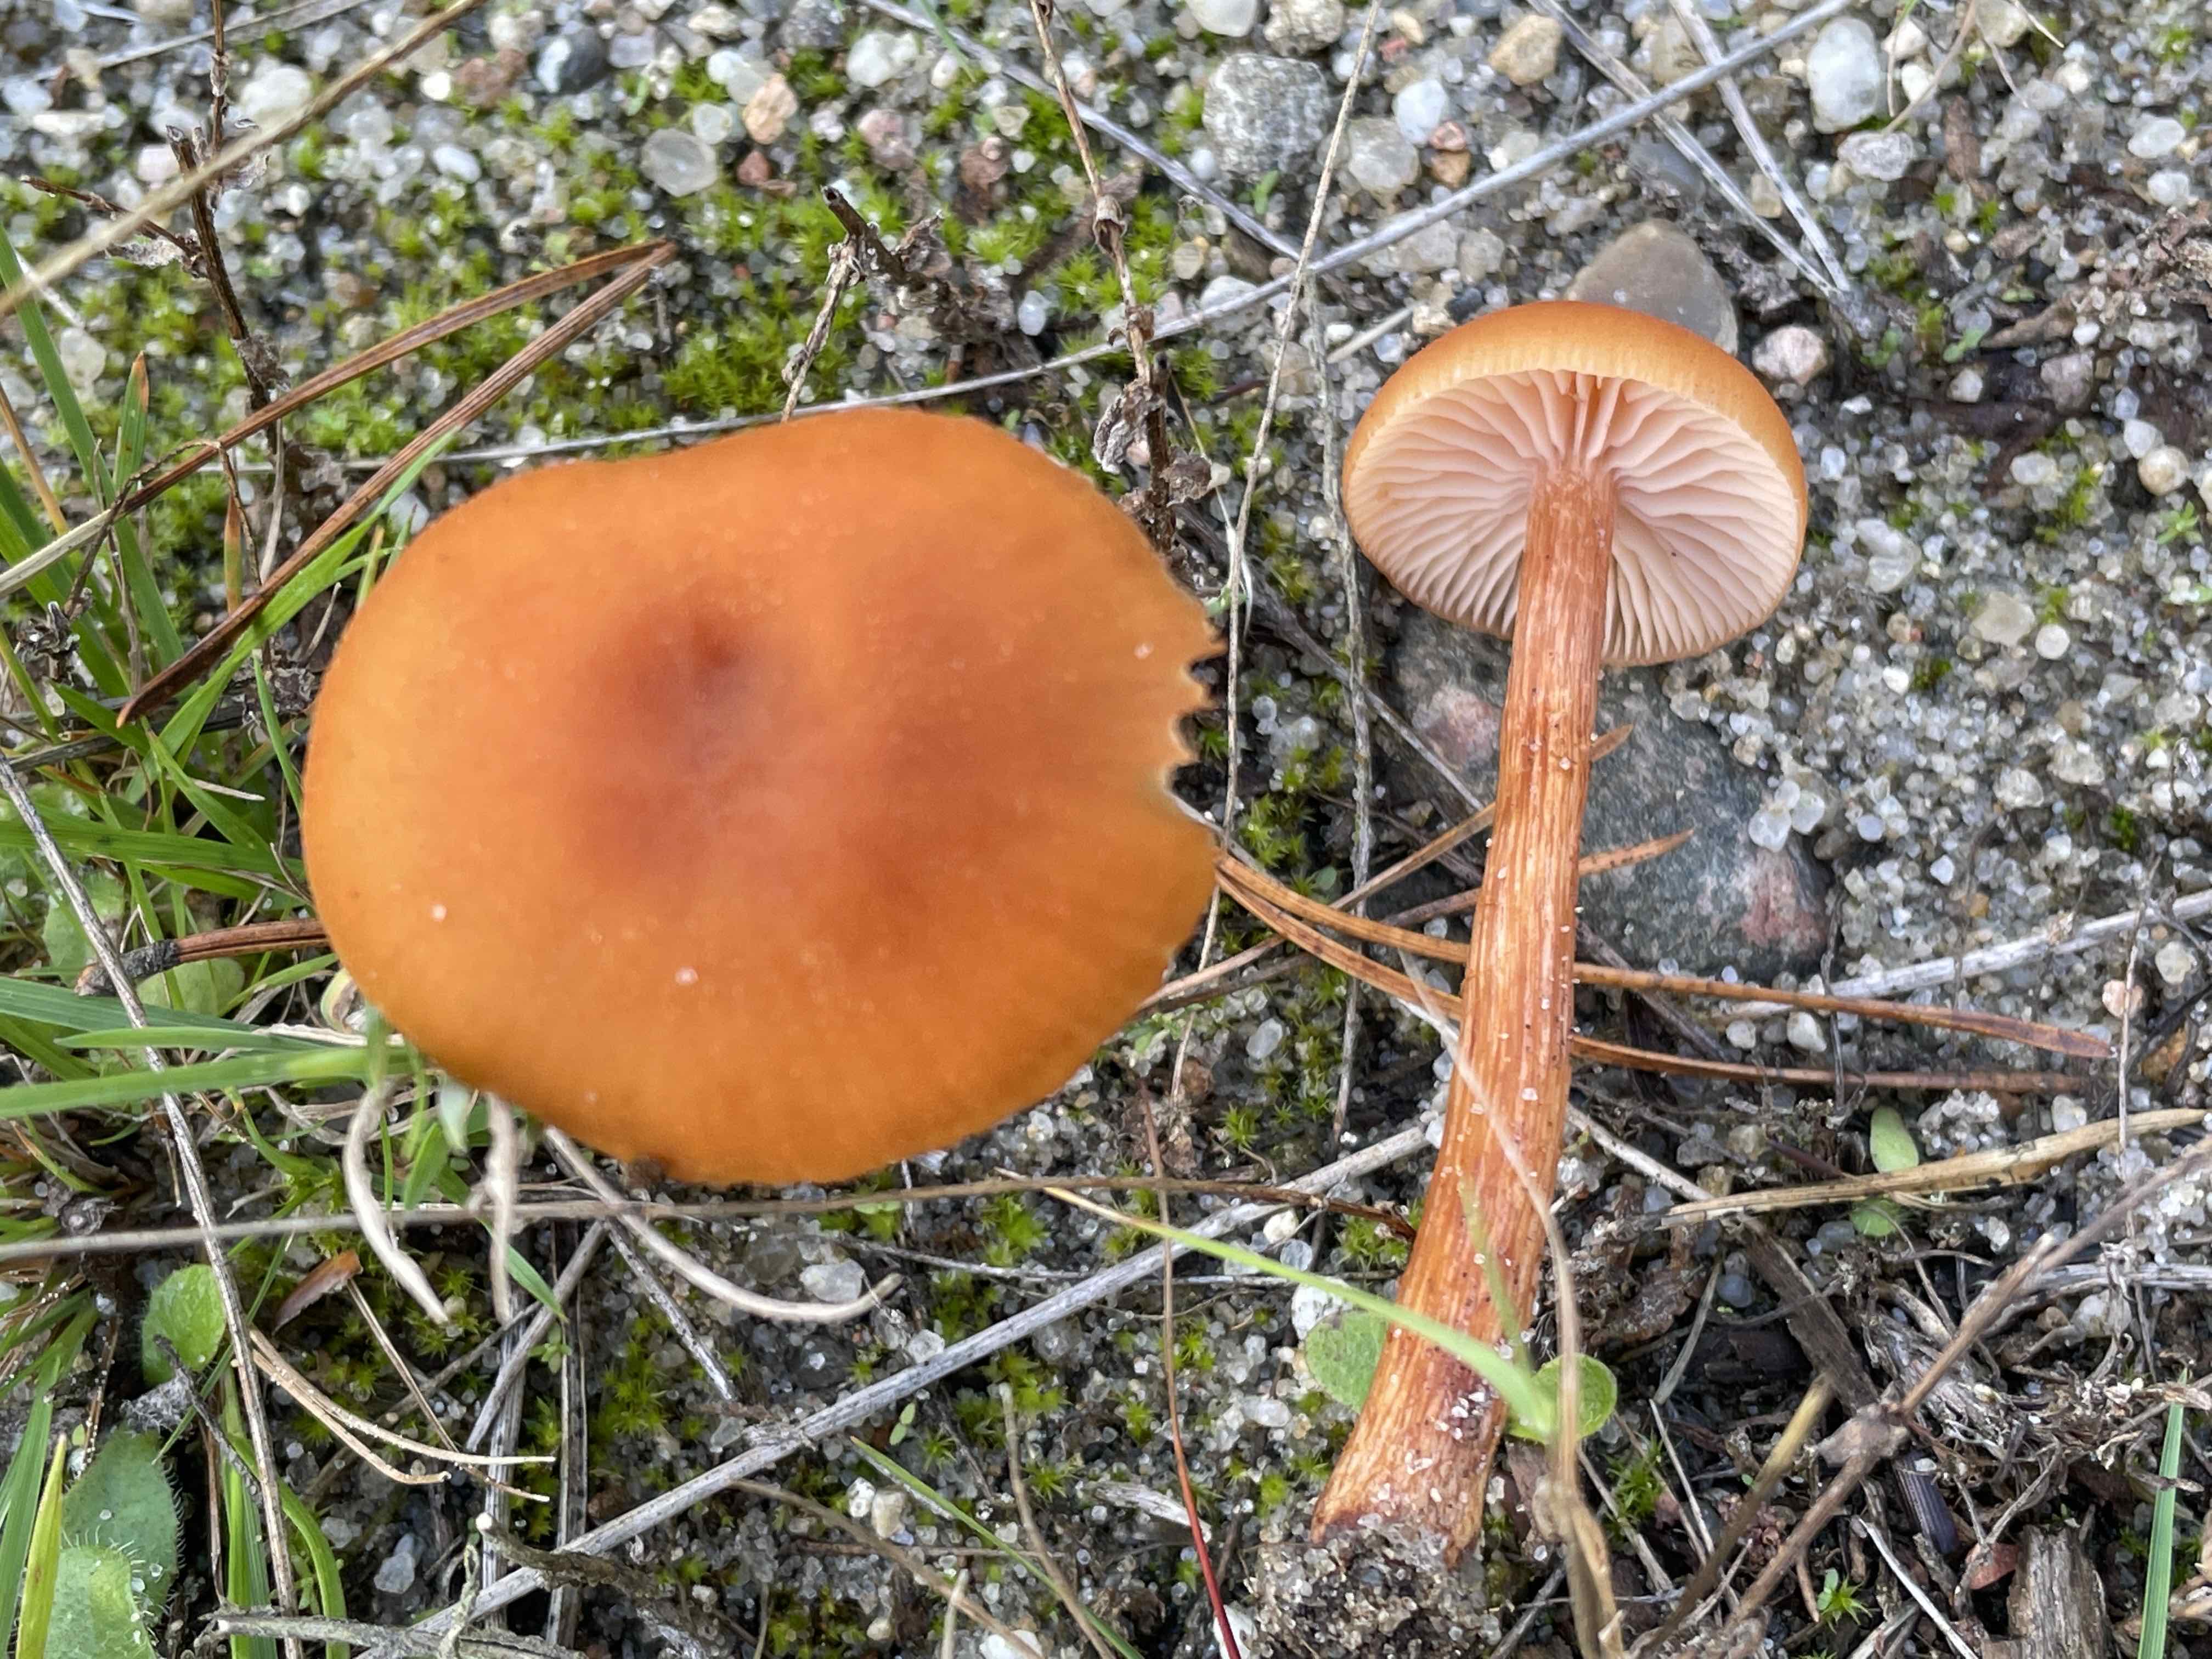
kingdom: Fungi
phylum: Basidiomycota
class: Agaricomycetes
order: Agaricales
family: Hydnangiaceae
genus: Laccaria
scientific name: Laccaria proxima
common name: stor ametysthat
